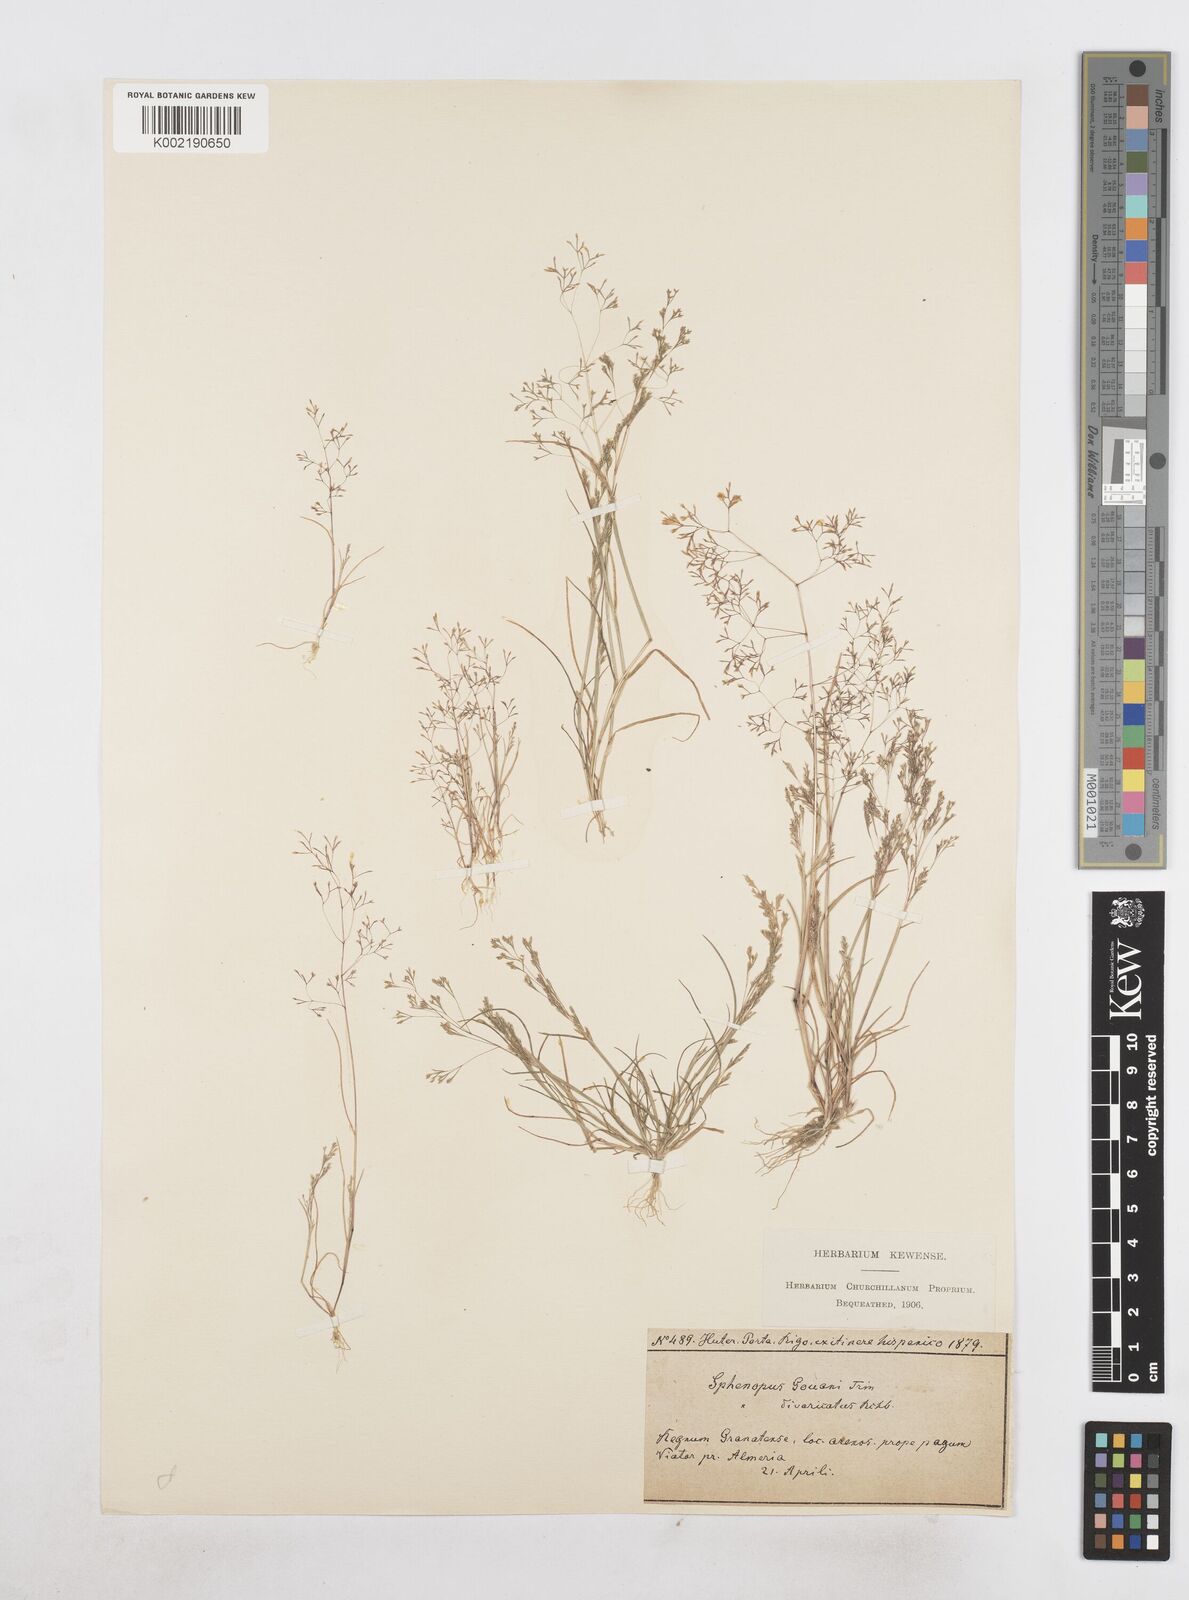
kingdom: Plantae
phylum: Tracheophyta
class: Liliopsida
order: Poales
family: Poaceae
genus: Sphenopus
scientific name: Sphenopus divaricatus
